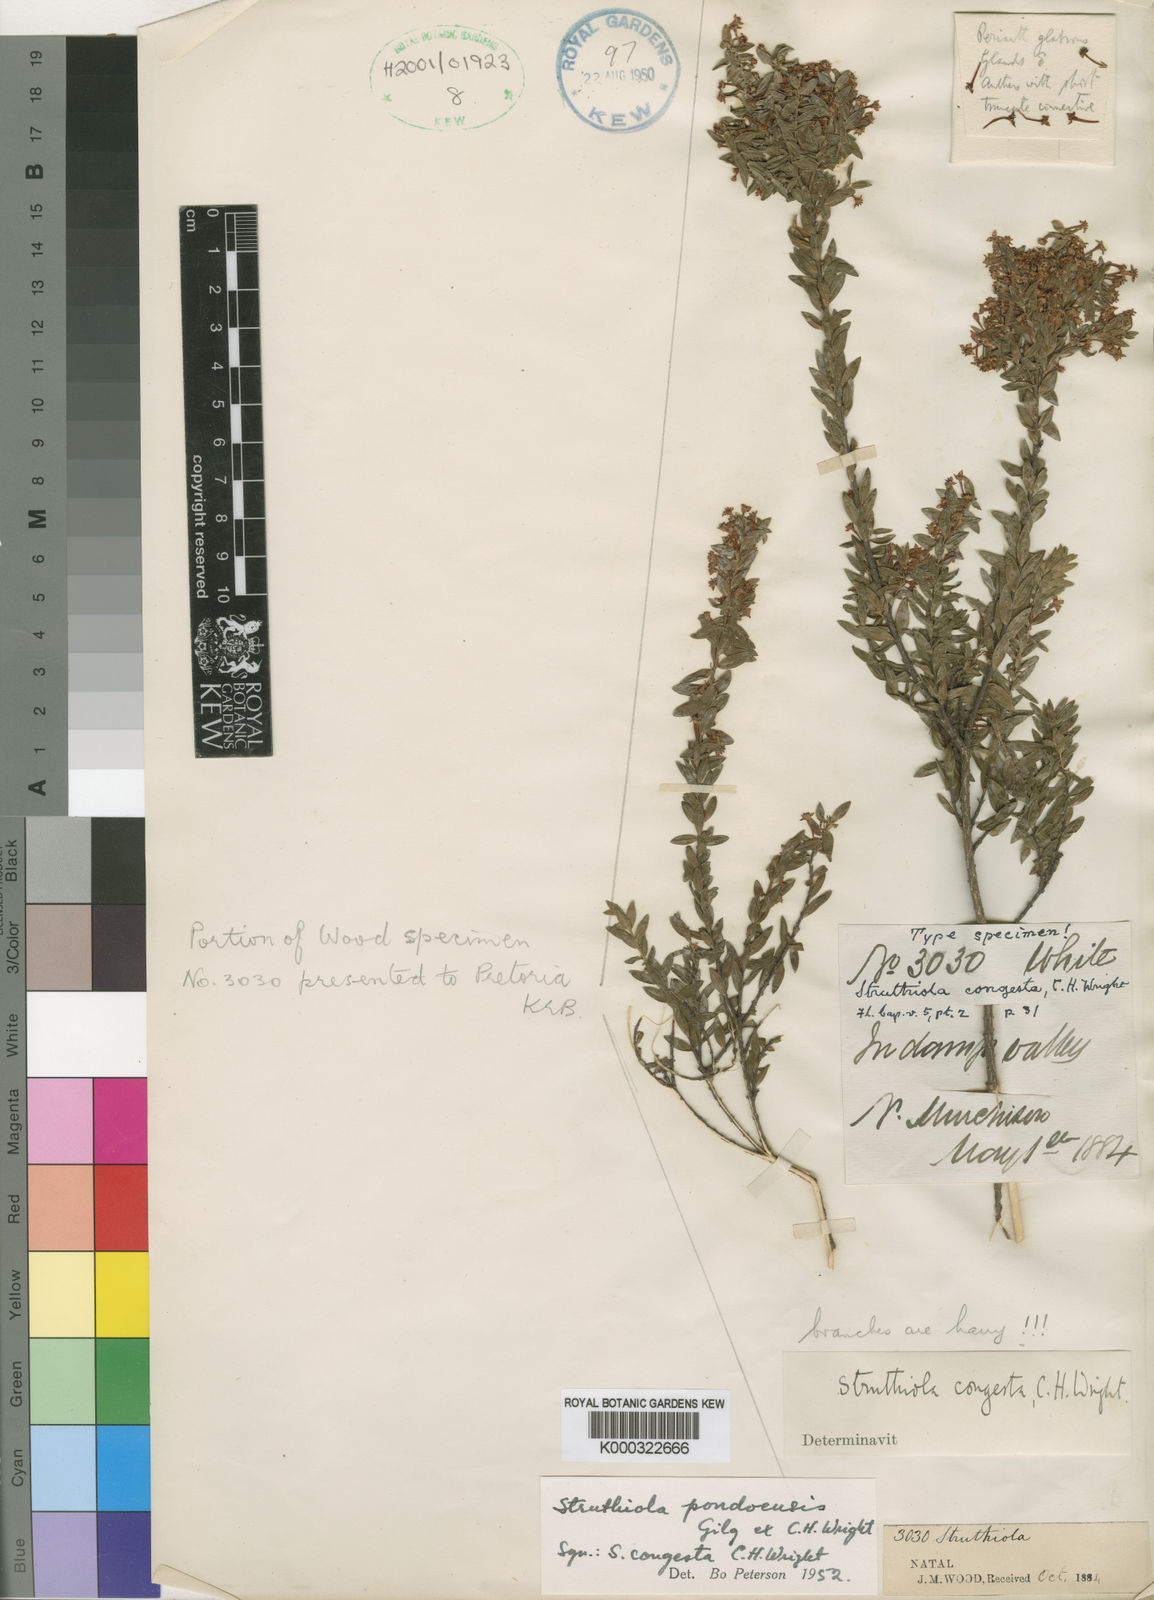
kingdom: Plantae
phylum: Tracheophyta
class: Magnoliopsida
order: Malvales
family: Thymelaeaceae
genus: Struthiola
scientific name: Struthiola
